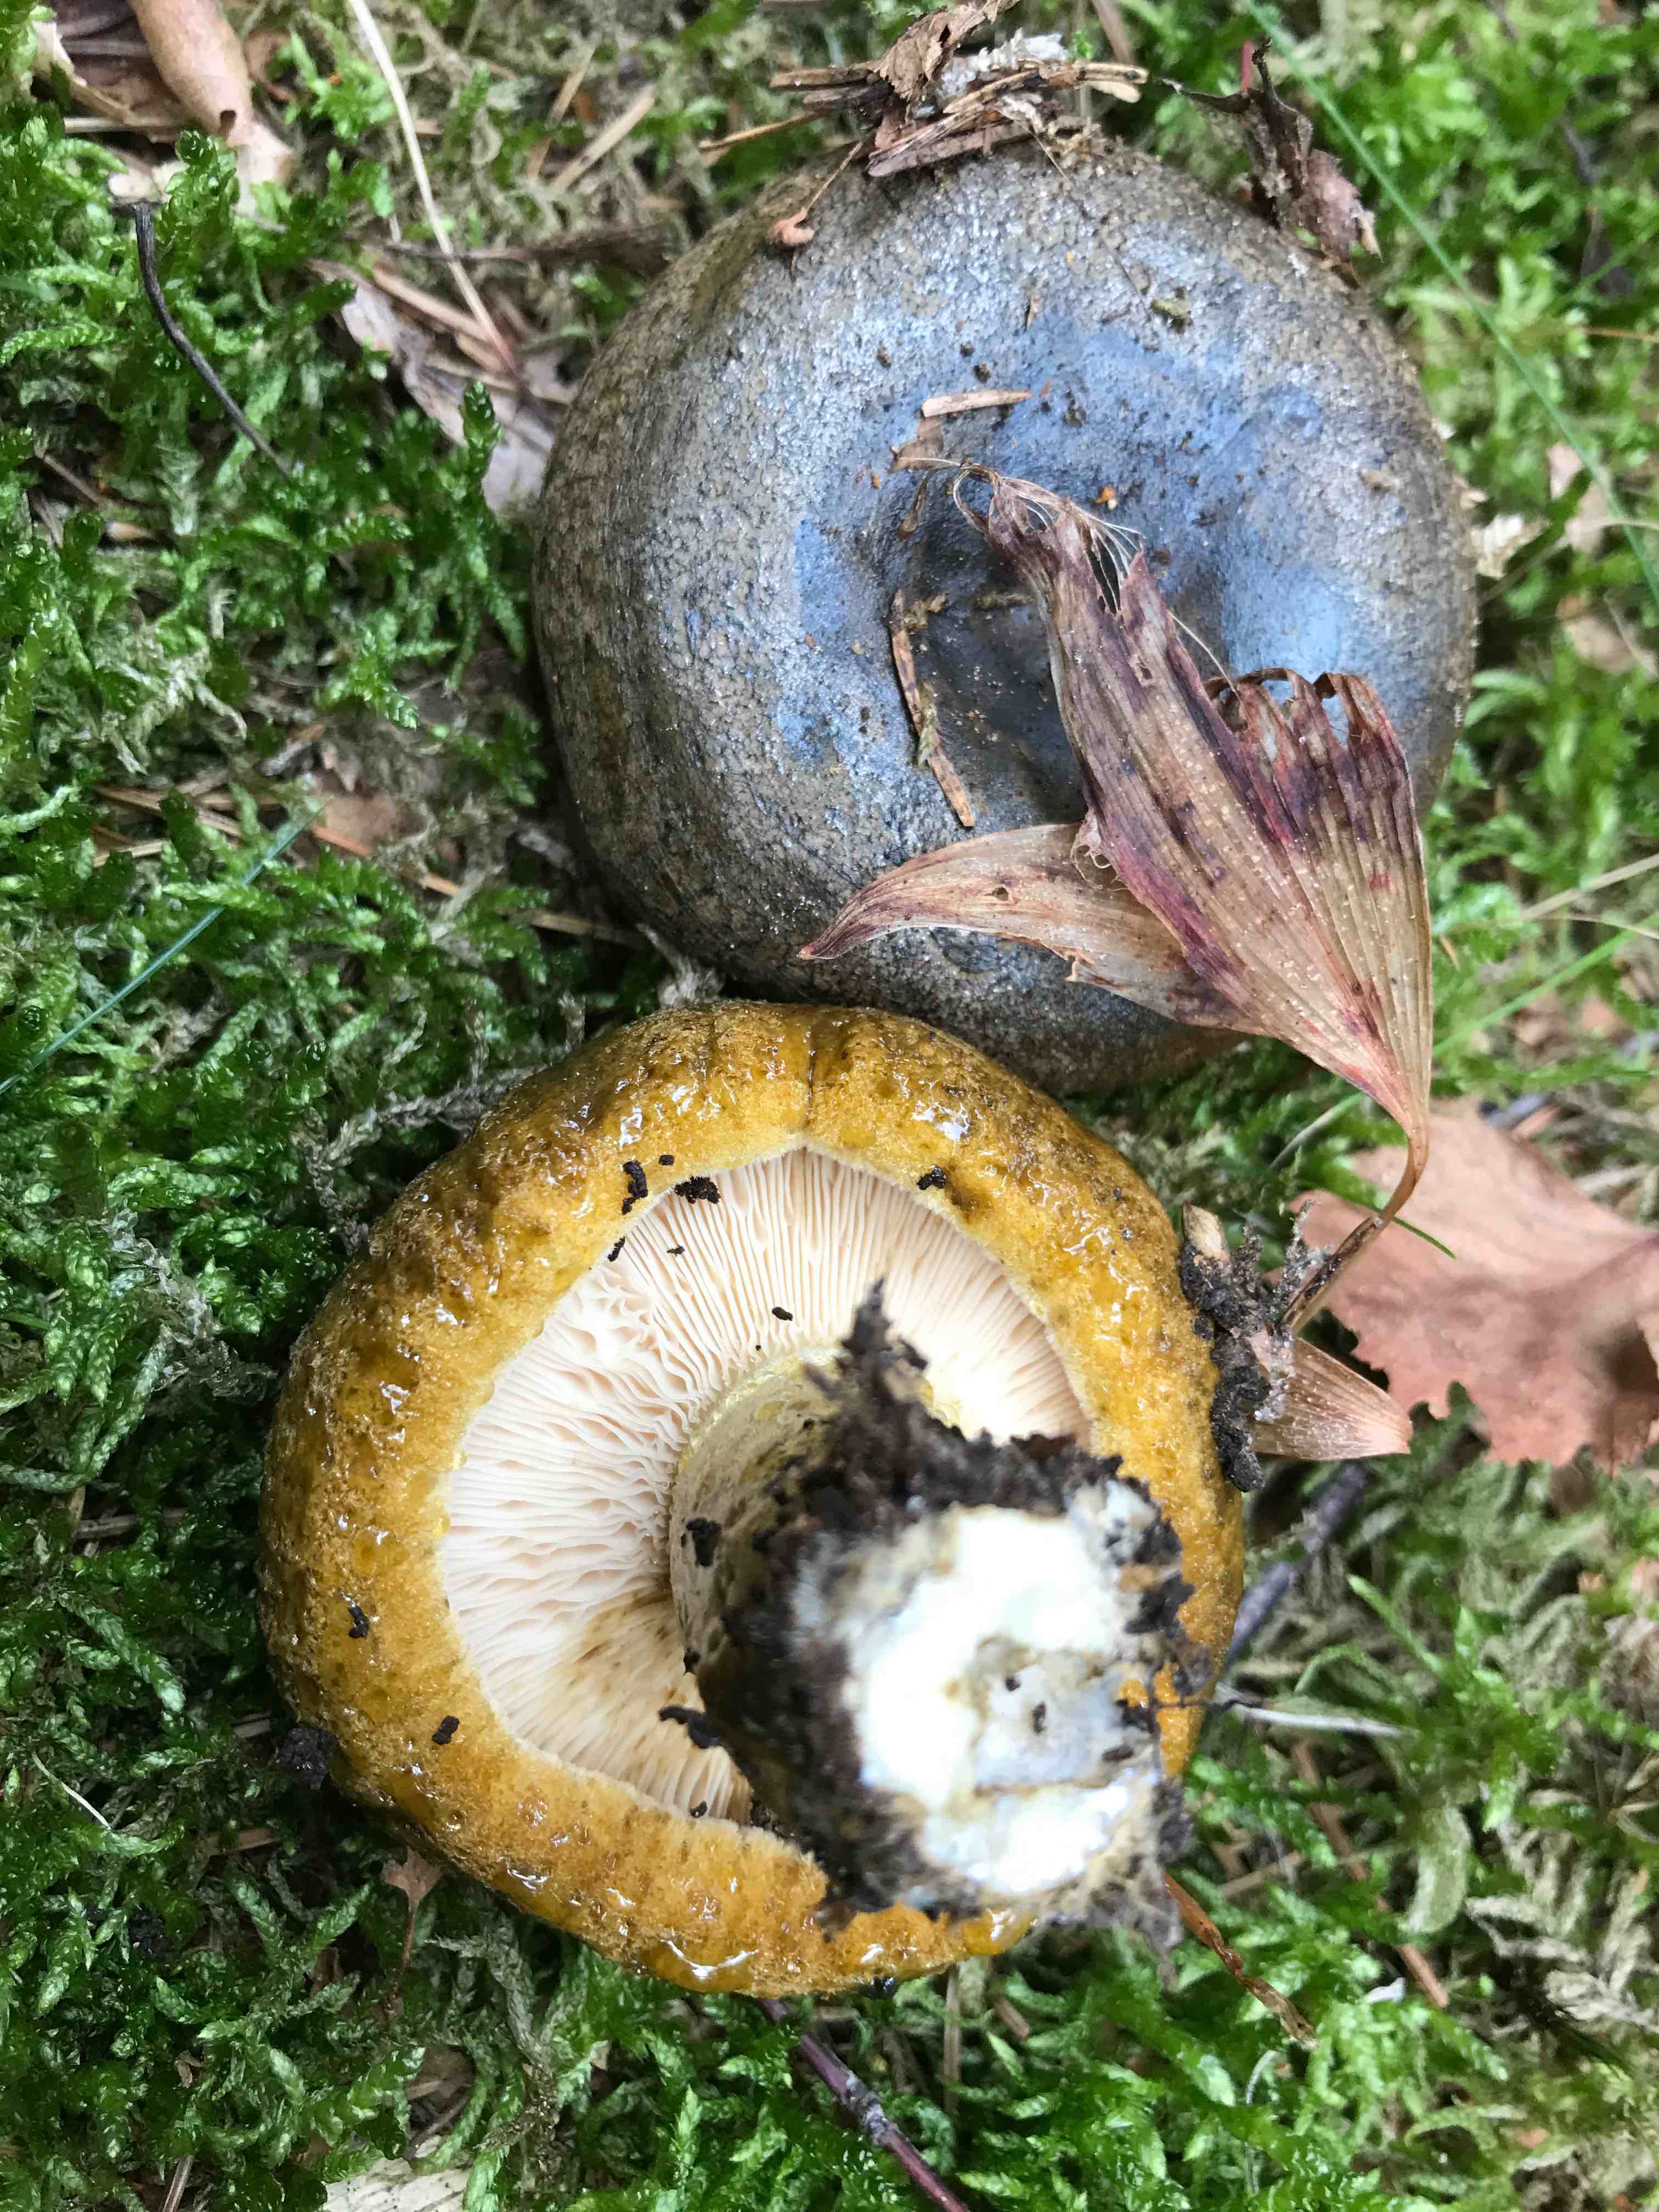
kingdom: Fungi
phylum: Basidiomycota
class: Agaricomycetes
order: Russulales
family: Russulaceae
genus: Lactarius
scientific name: Lactarius necator
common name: manddraber-mælkehat
